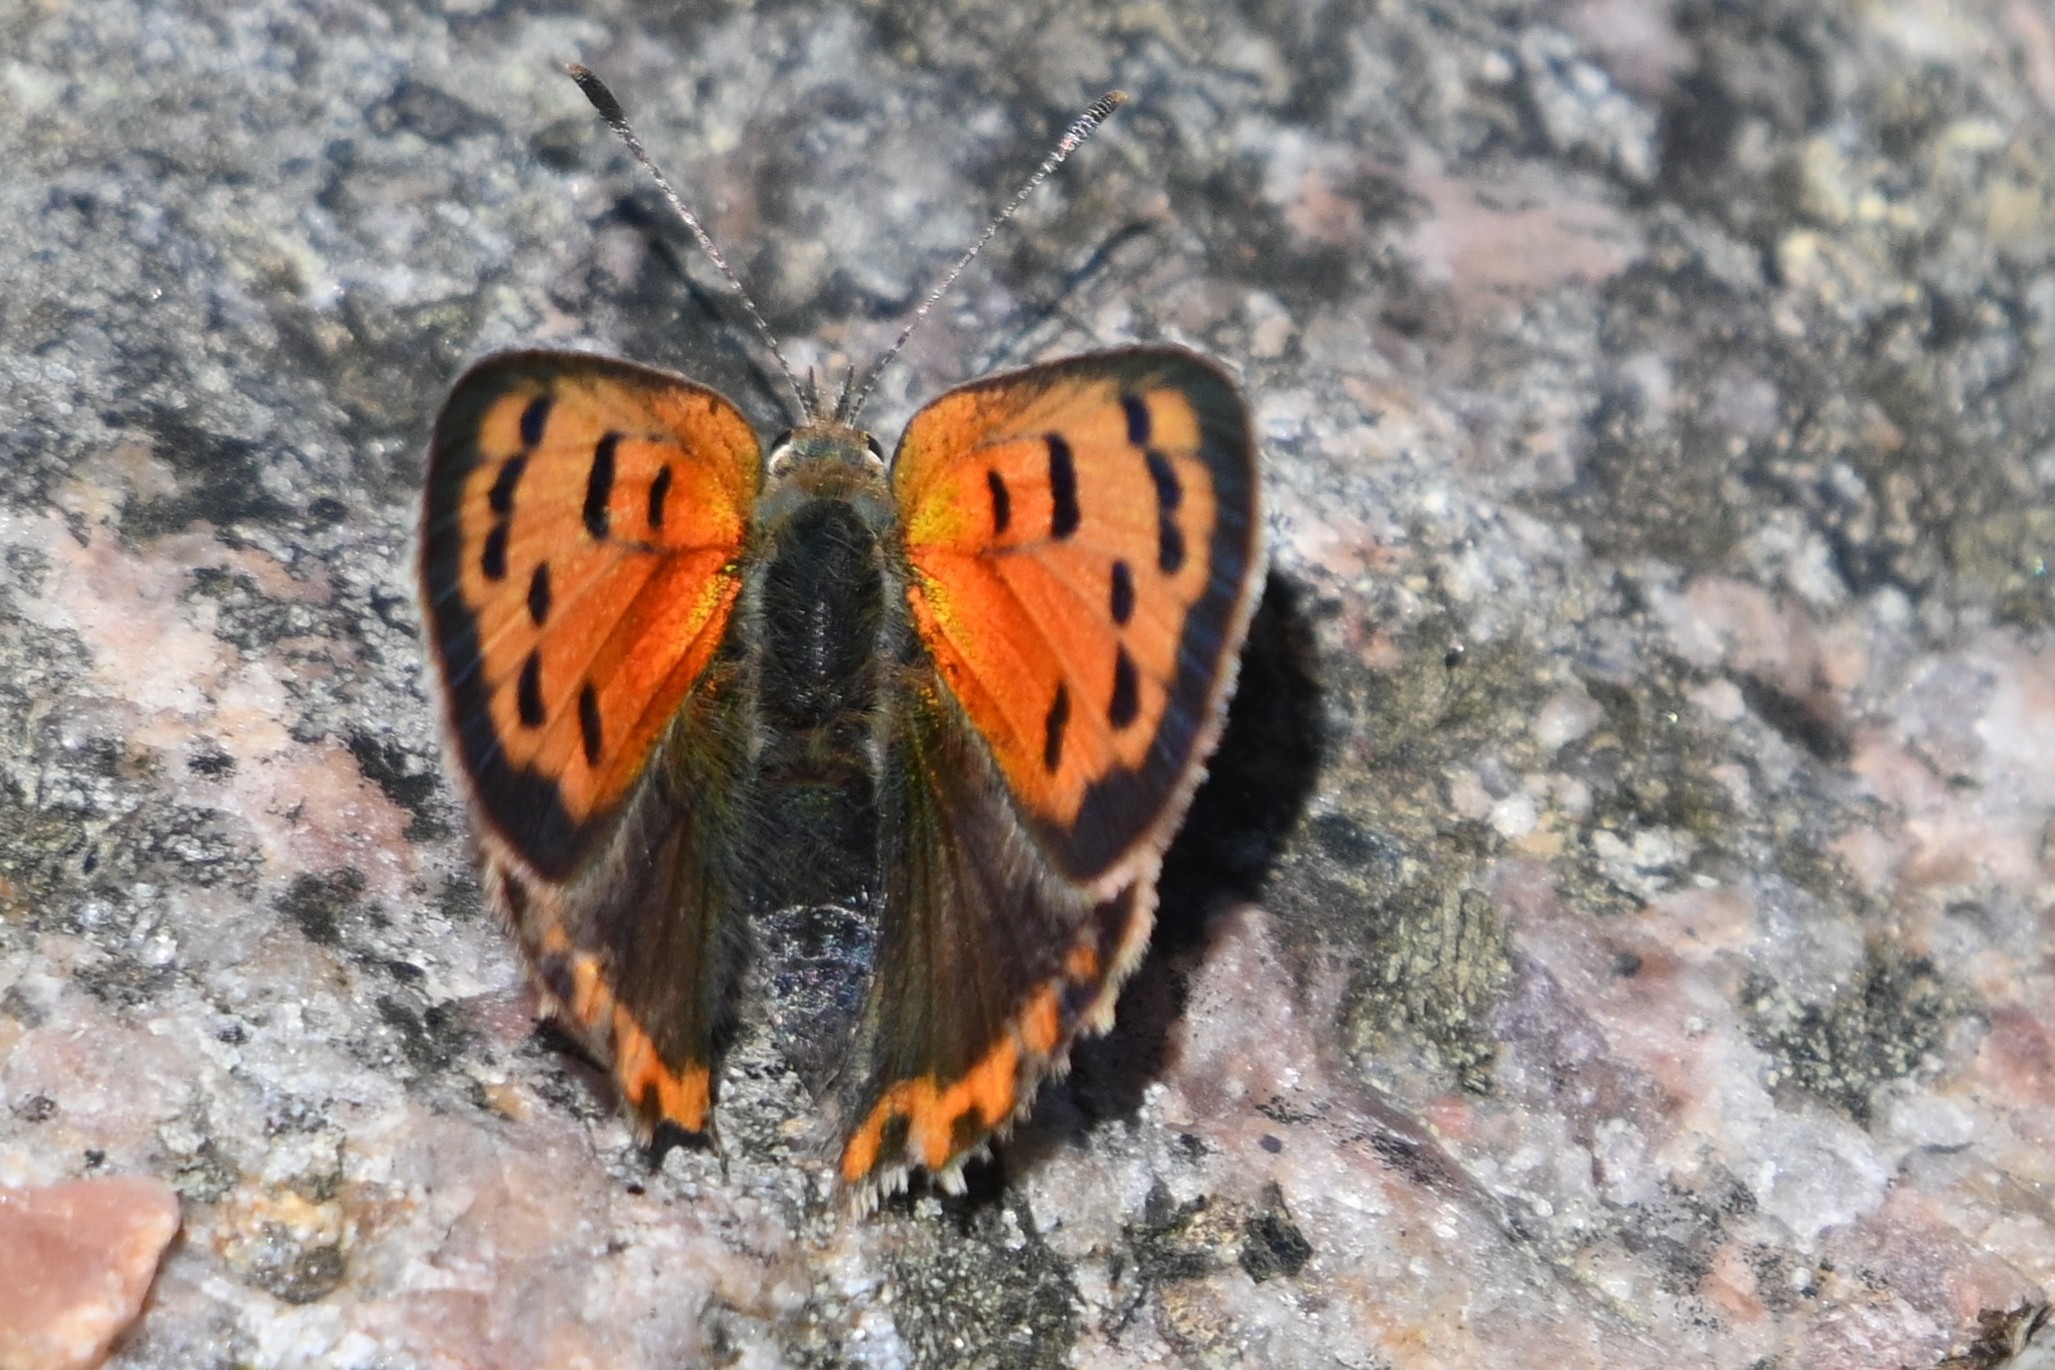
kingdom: Animalia
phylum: Arthropoda
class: Insecta
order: Lepidoptera
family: Lycaenidae
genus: Lycaena
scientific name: Lycaena phlaeas
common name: Lille ildfugl
